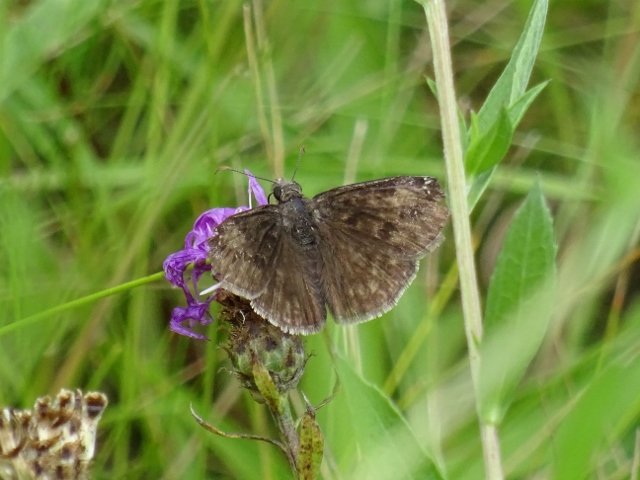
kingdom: Animalia
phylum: Arthropoda
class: Insecta
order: Lepidoptera
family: Hesperiidae
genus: Gesta
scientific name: Gesta
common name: Wild Indigo Duskywing
